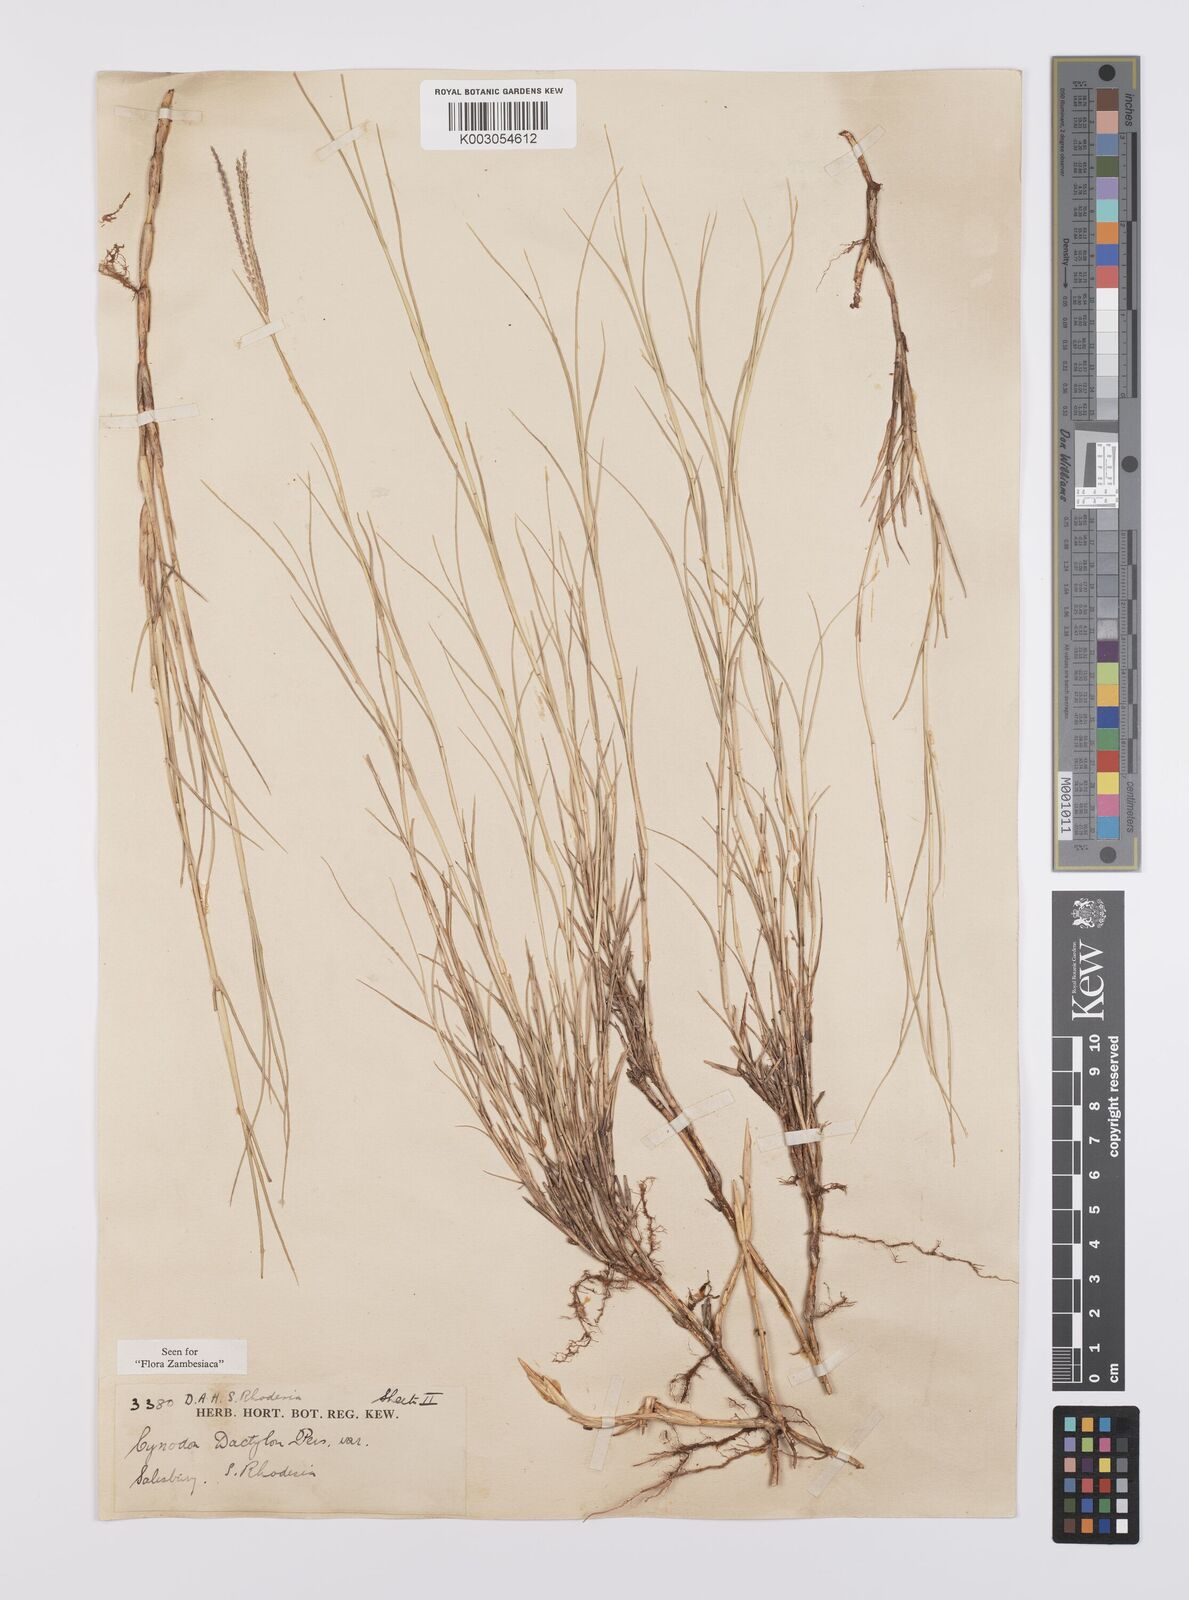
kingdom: Plantae
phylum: Tracheophyta
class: Liliopsida
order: Poales
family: Poaceae
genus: Cynodon
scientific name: Cynodon dactylon
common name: Bermuda grass
